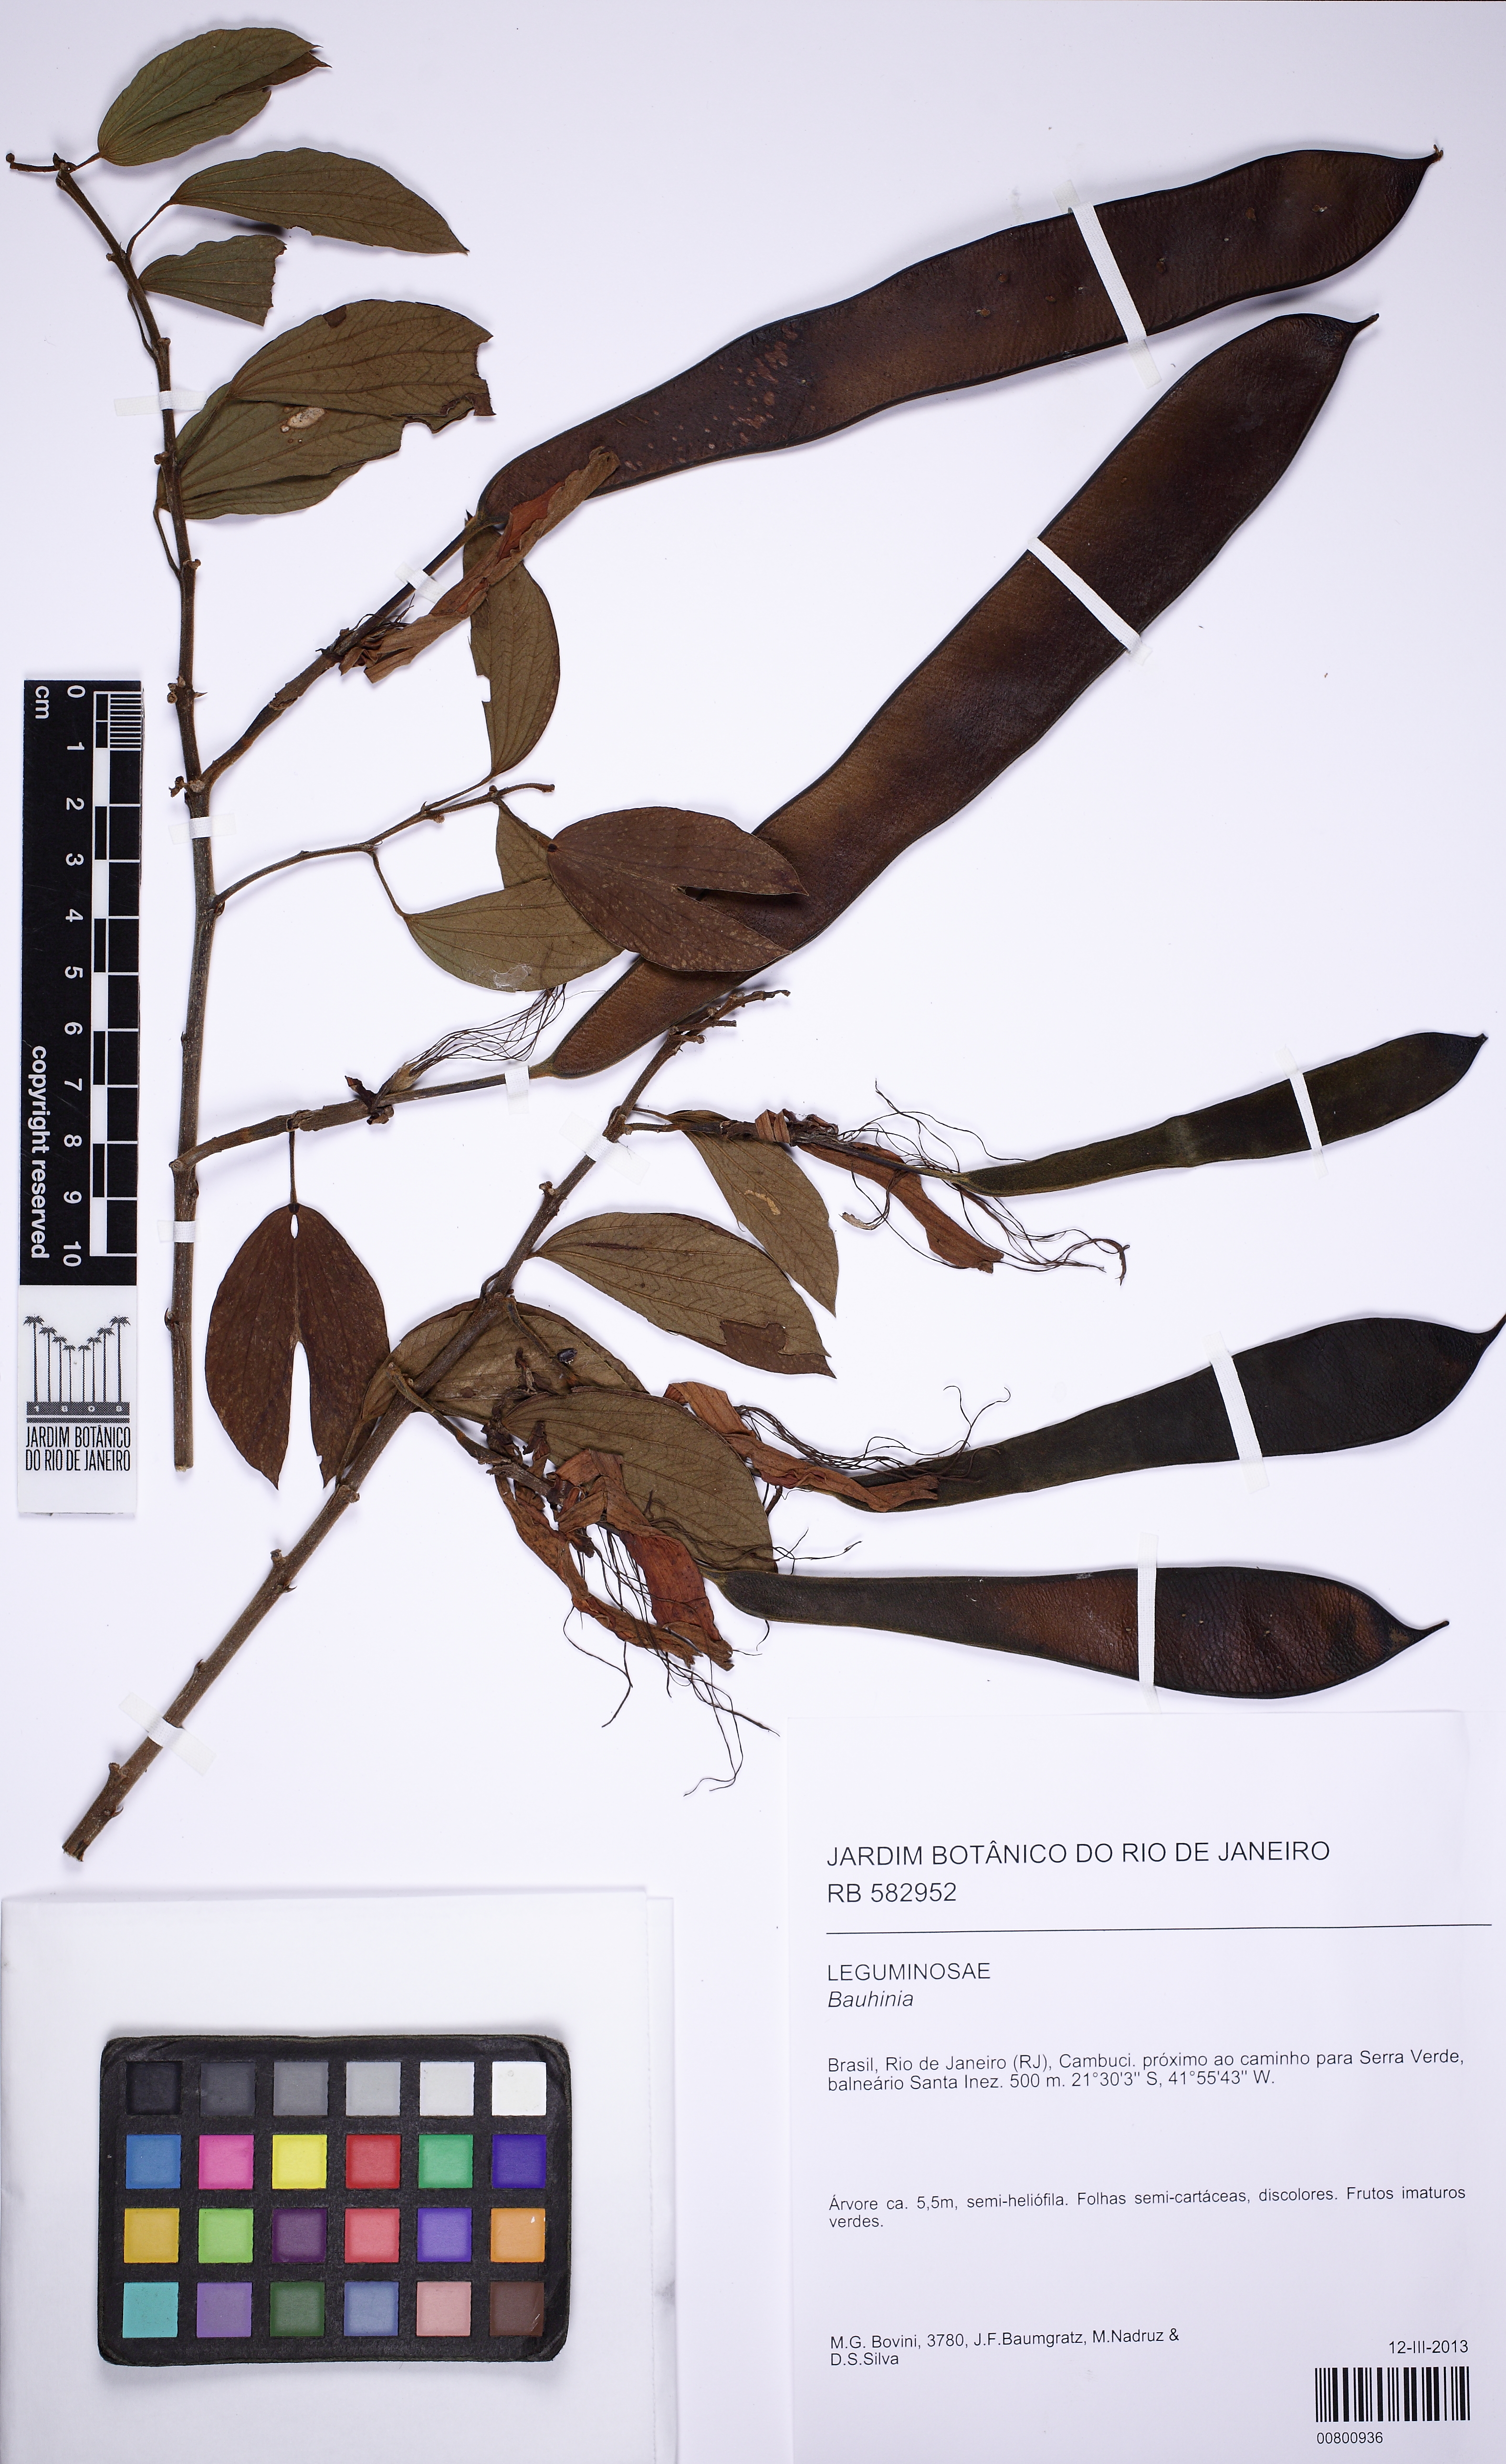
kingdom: Plantae
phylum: Tracheophyta
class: Magnoliopsida
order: Fabales
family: Fabaceae
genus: Bauhinia
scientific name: Bauhinia
